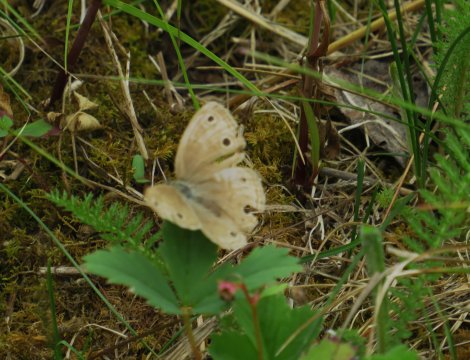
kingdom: Animalia
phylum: Arthropoda
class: Insecta
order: Lepidoptera
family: Nymphalidae
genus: Euptychia
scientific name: Euptychia cymela
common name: Little Wood Satyr
